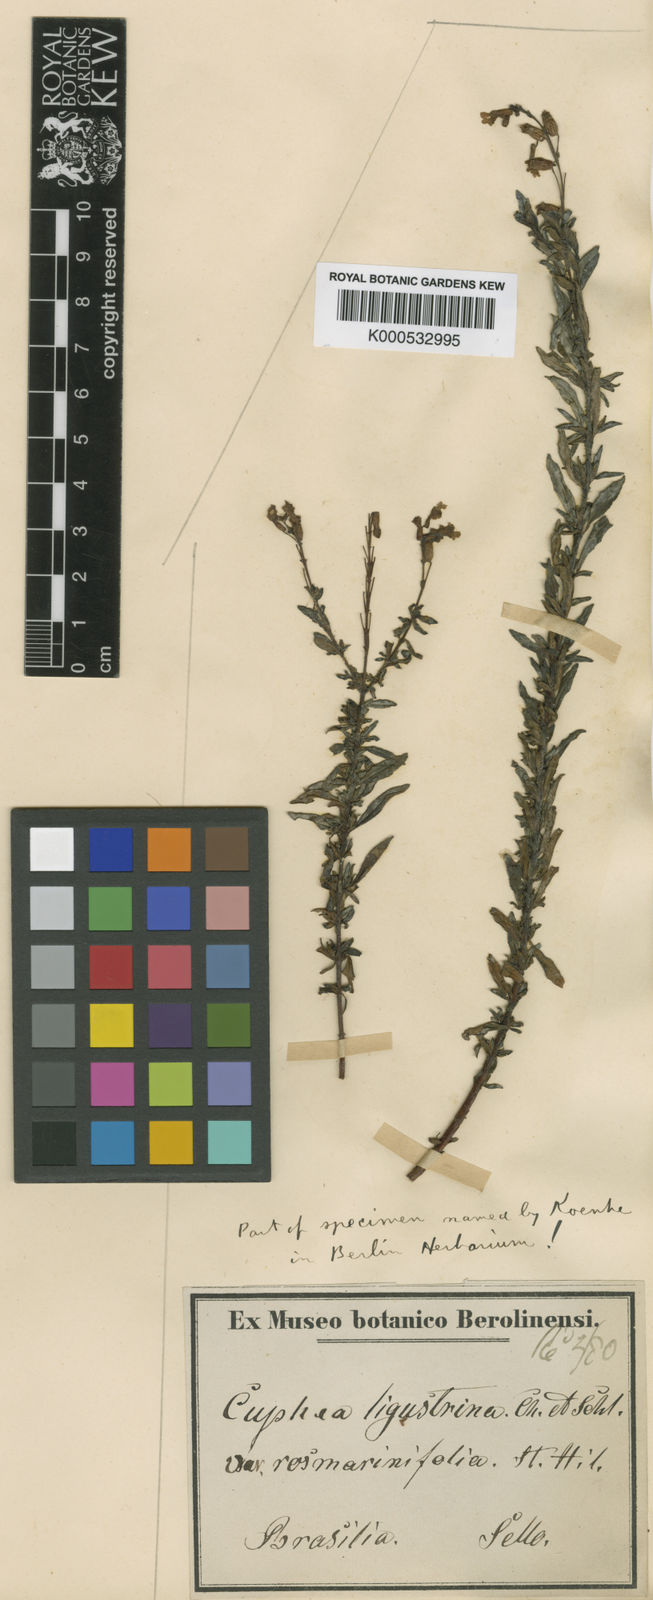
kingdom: Plantae
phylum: Tracheophyta
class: Magnoliopsida
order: Myrtales
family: Lythraceae
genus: Cuphea
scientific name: Cuphea fruticosa
